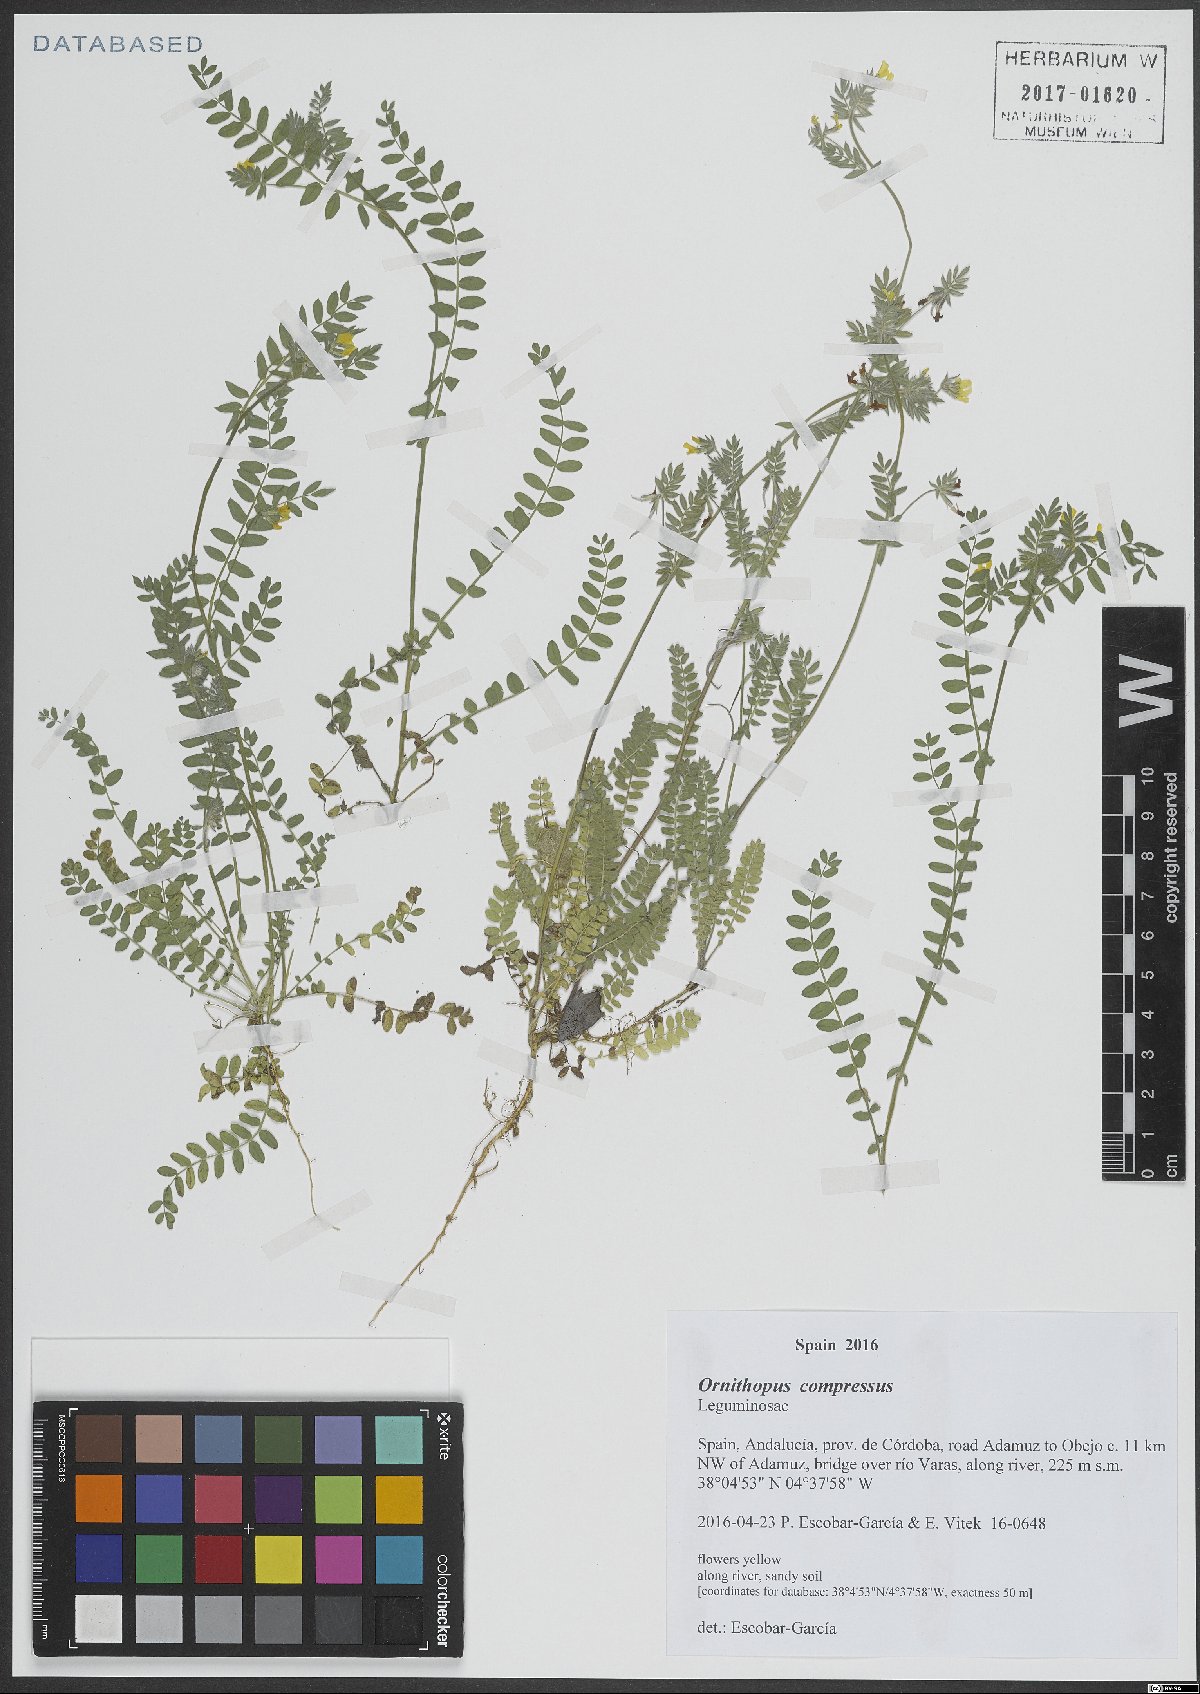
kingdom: Plantae
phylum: Tracheophyta
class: Magnoliopsida
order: Fabales
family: Fabaceae
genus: Ornithopus
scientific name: Ornithopus compressus
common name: Yellow serradella
